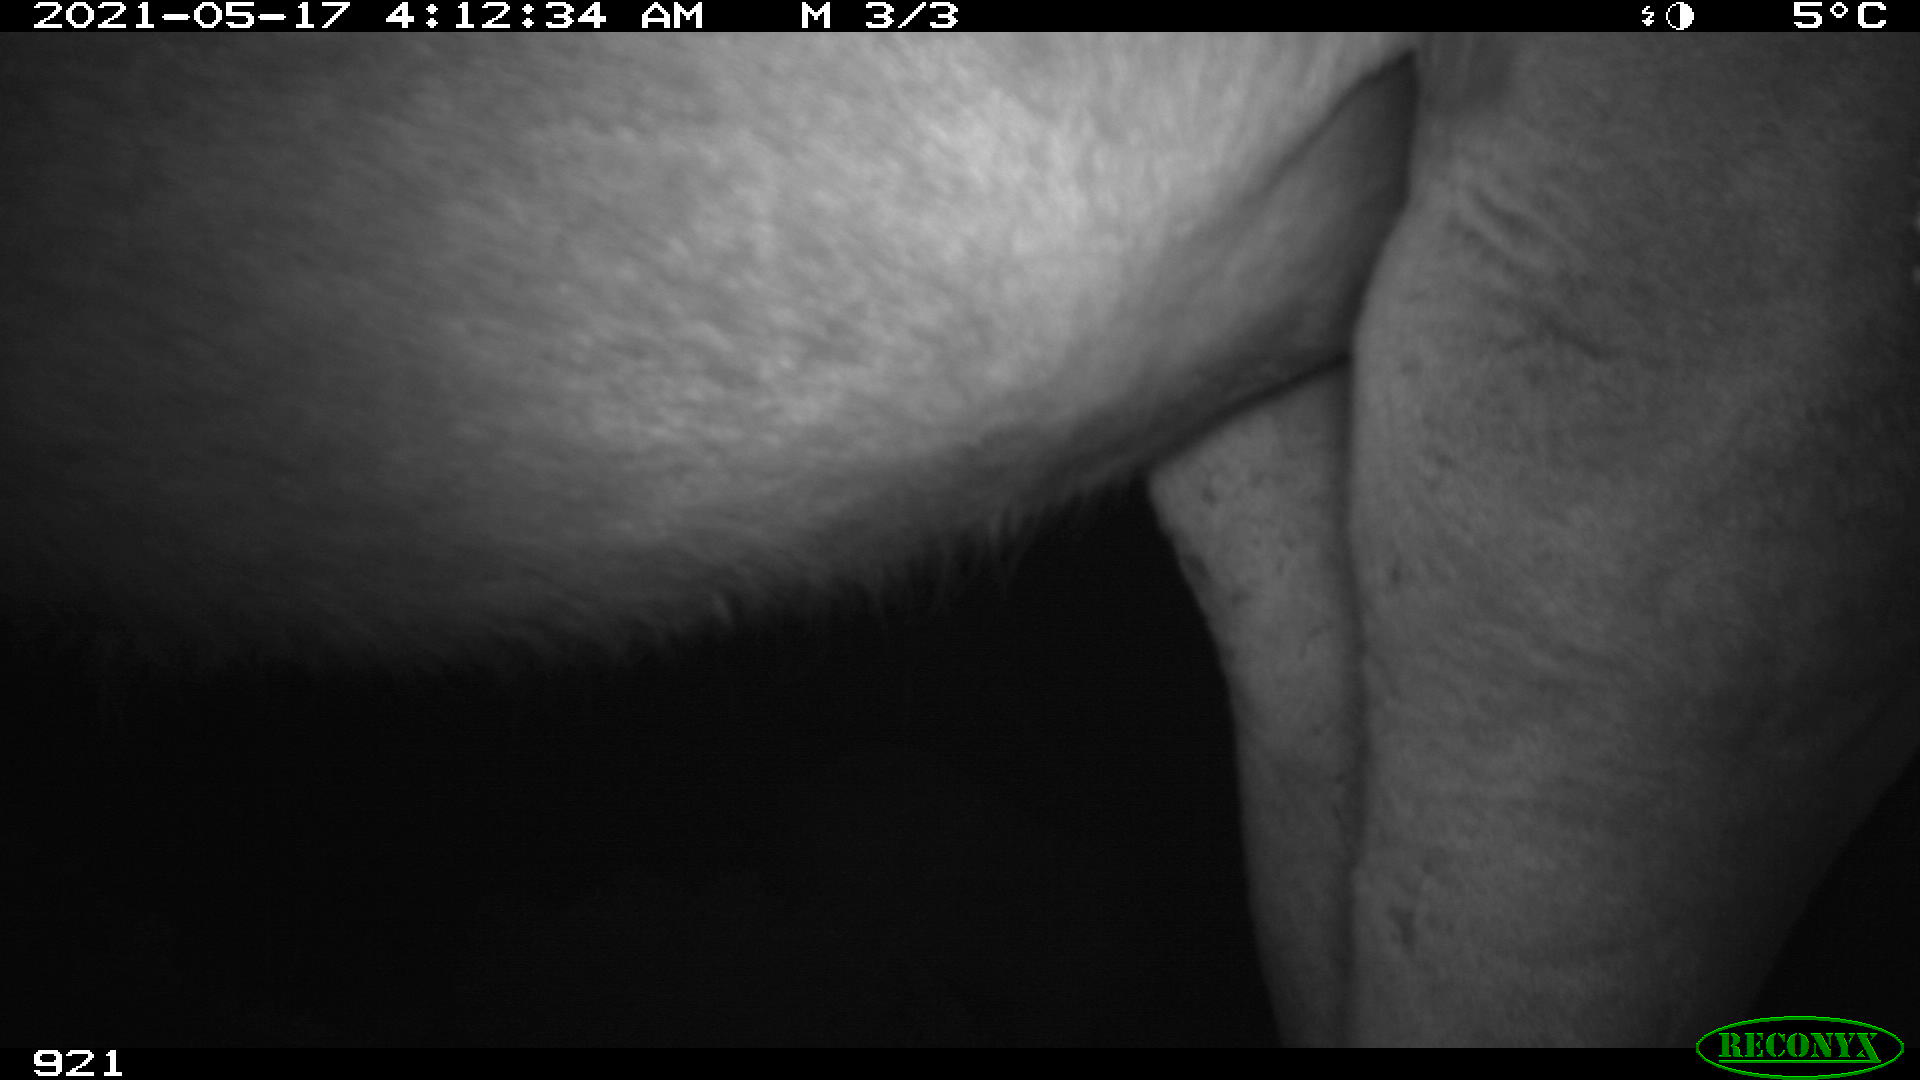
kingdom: Animalia
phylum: Chordata
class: Mammalia
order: Perissodactyla
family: Equidae
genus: Equus
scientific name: Equus caballus
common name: Horse
